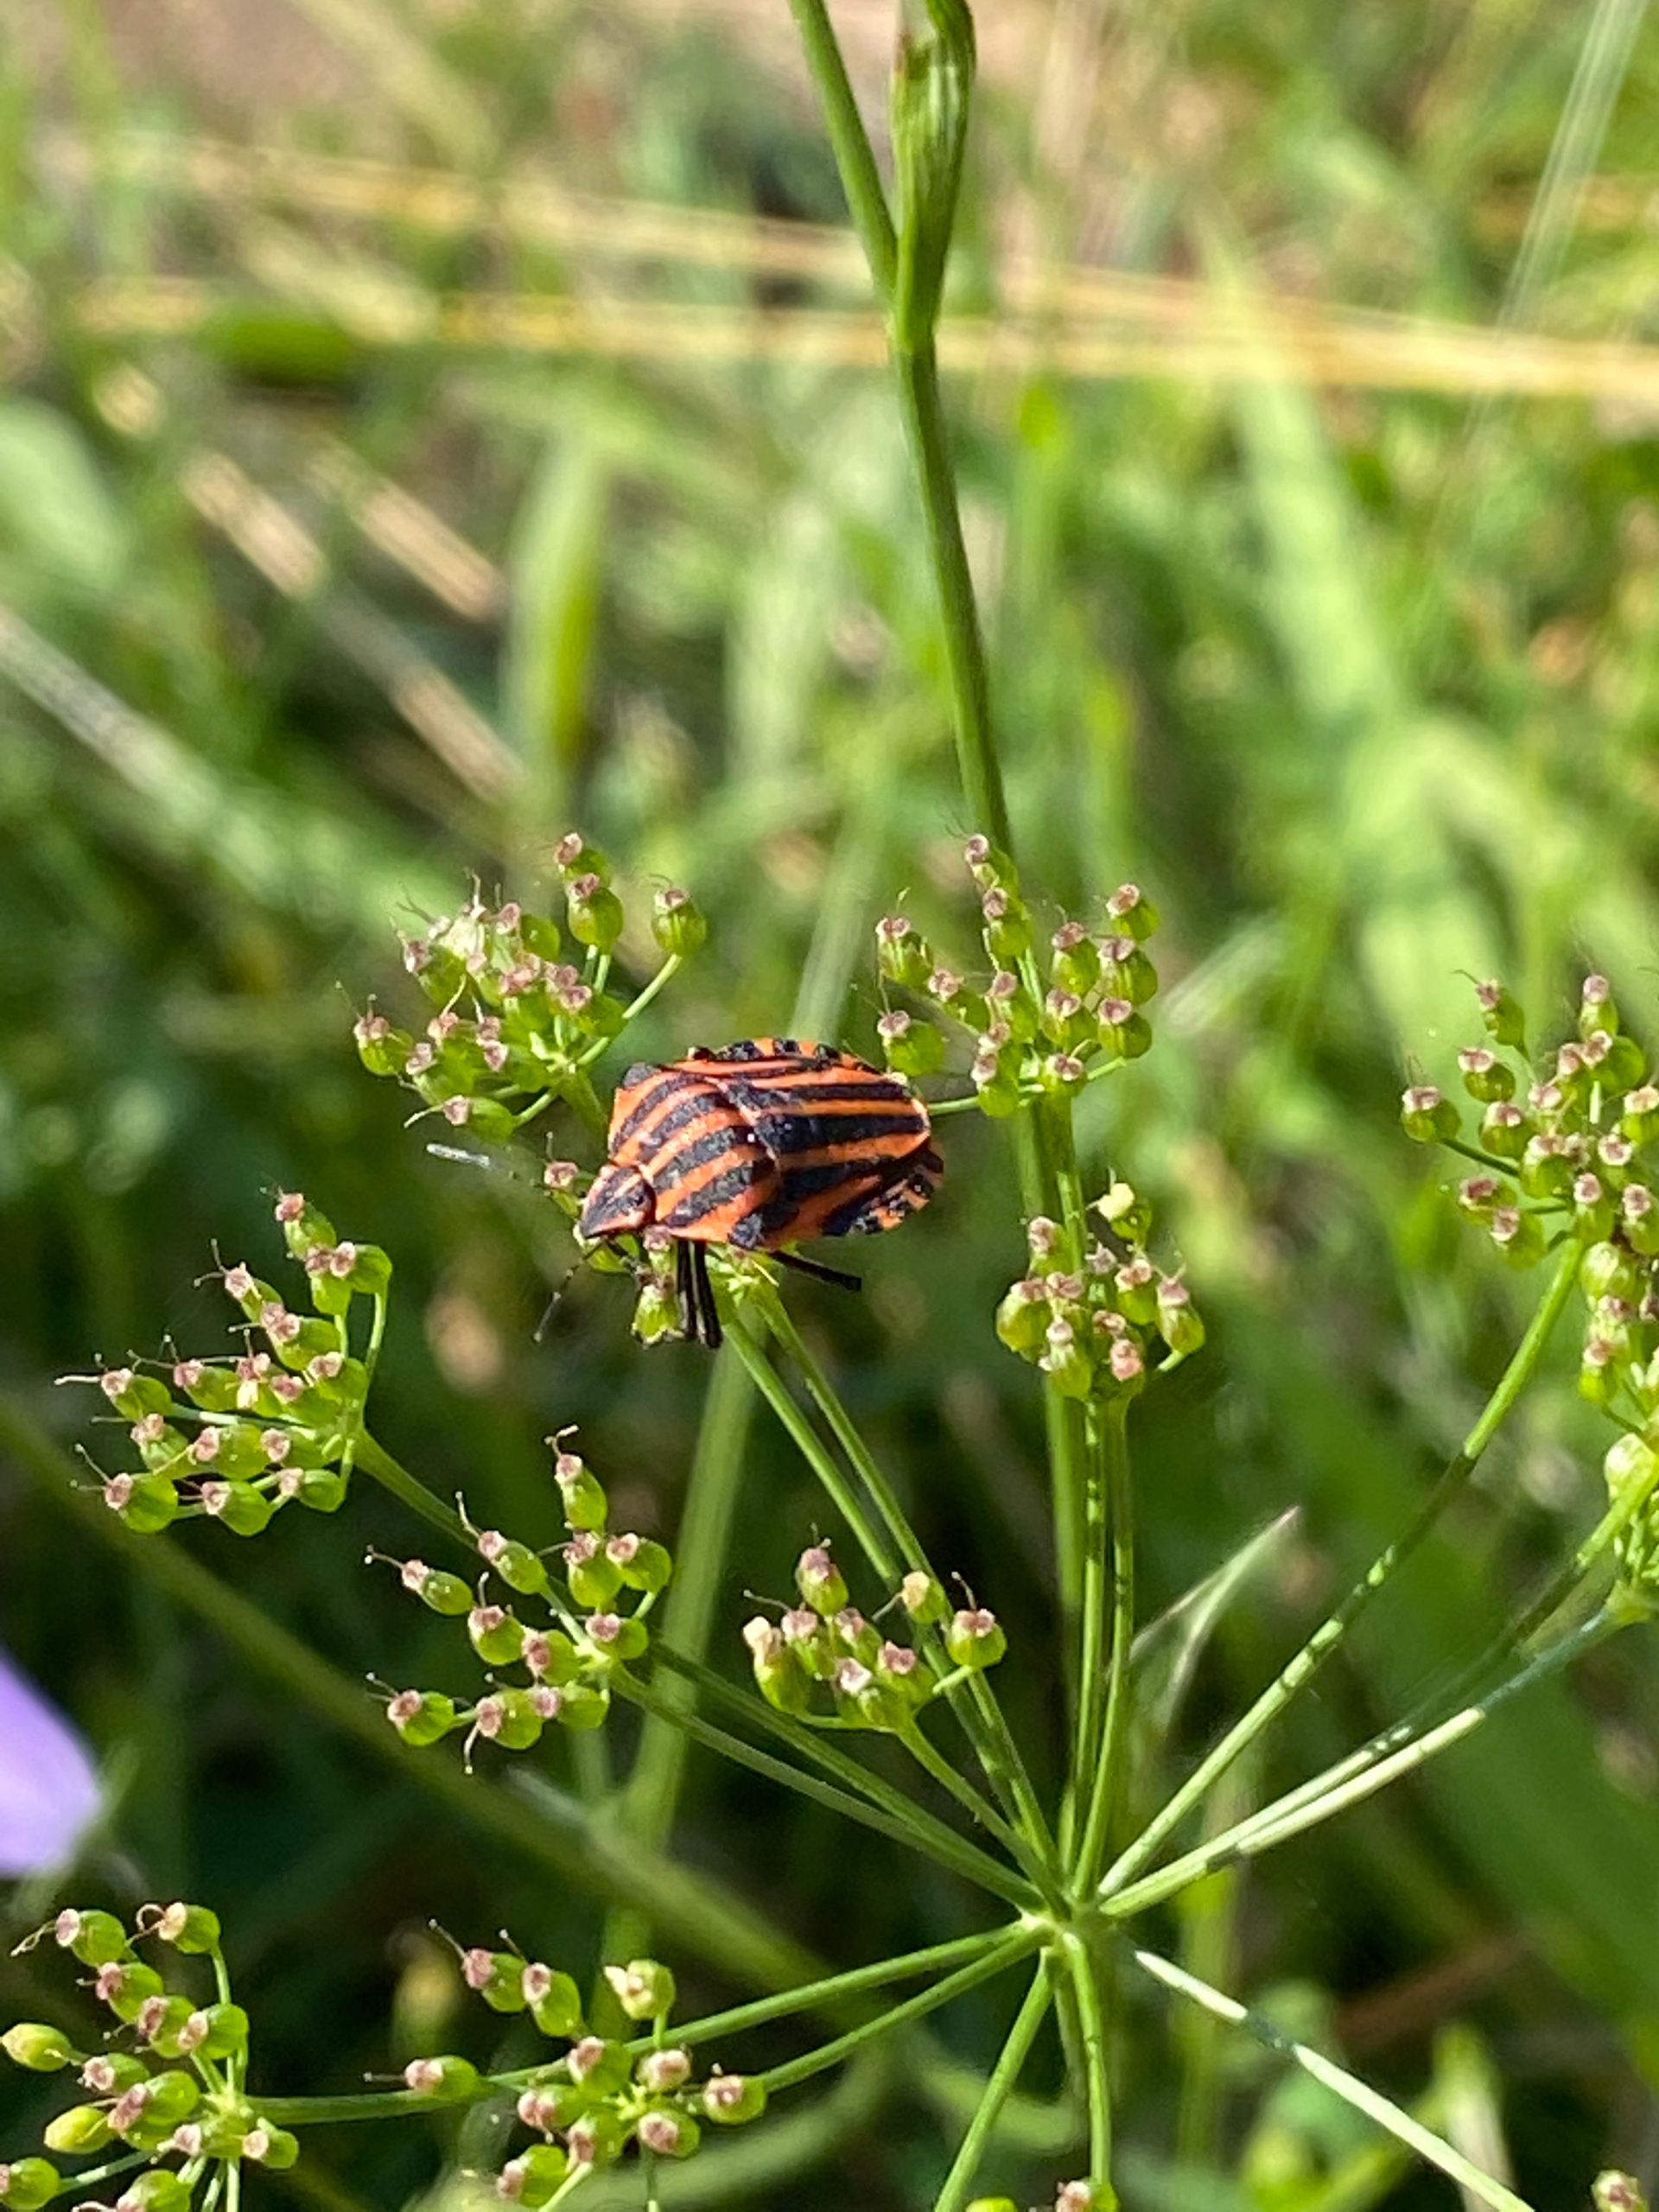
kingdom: Animalia
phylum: Arthropoda
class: Insecta
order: Hemiptera
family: Pentatomidae
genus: Graphosoma
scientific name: Graphosoma italicum
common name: Stribetæge
